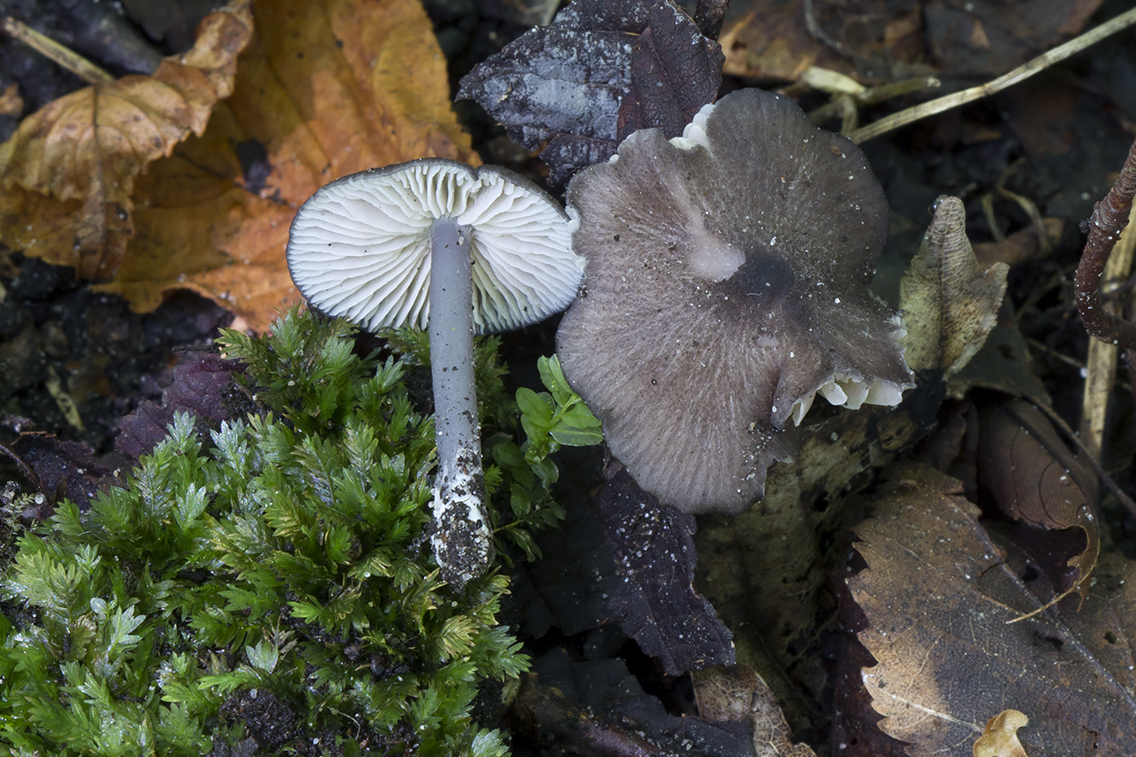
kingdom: Fungi
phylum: Basidiomycota
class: Agaricomycetes
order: Agaricales
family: Entolomataceae
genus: Entoloma
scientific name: Entoloma phaeodiscum
